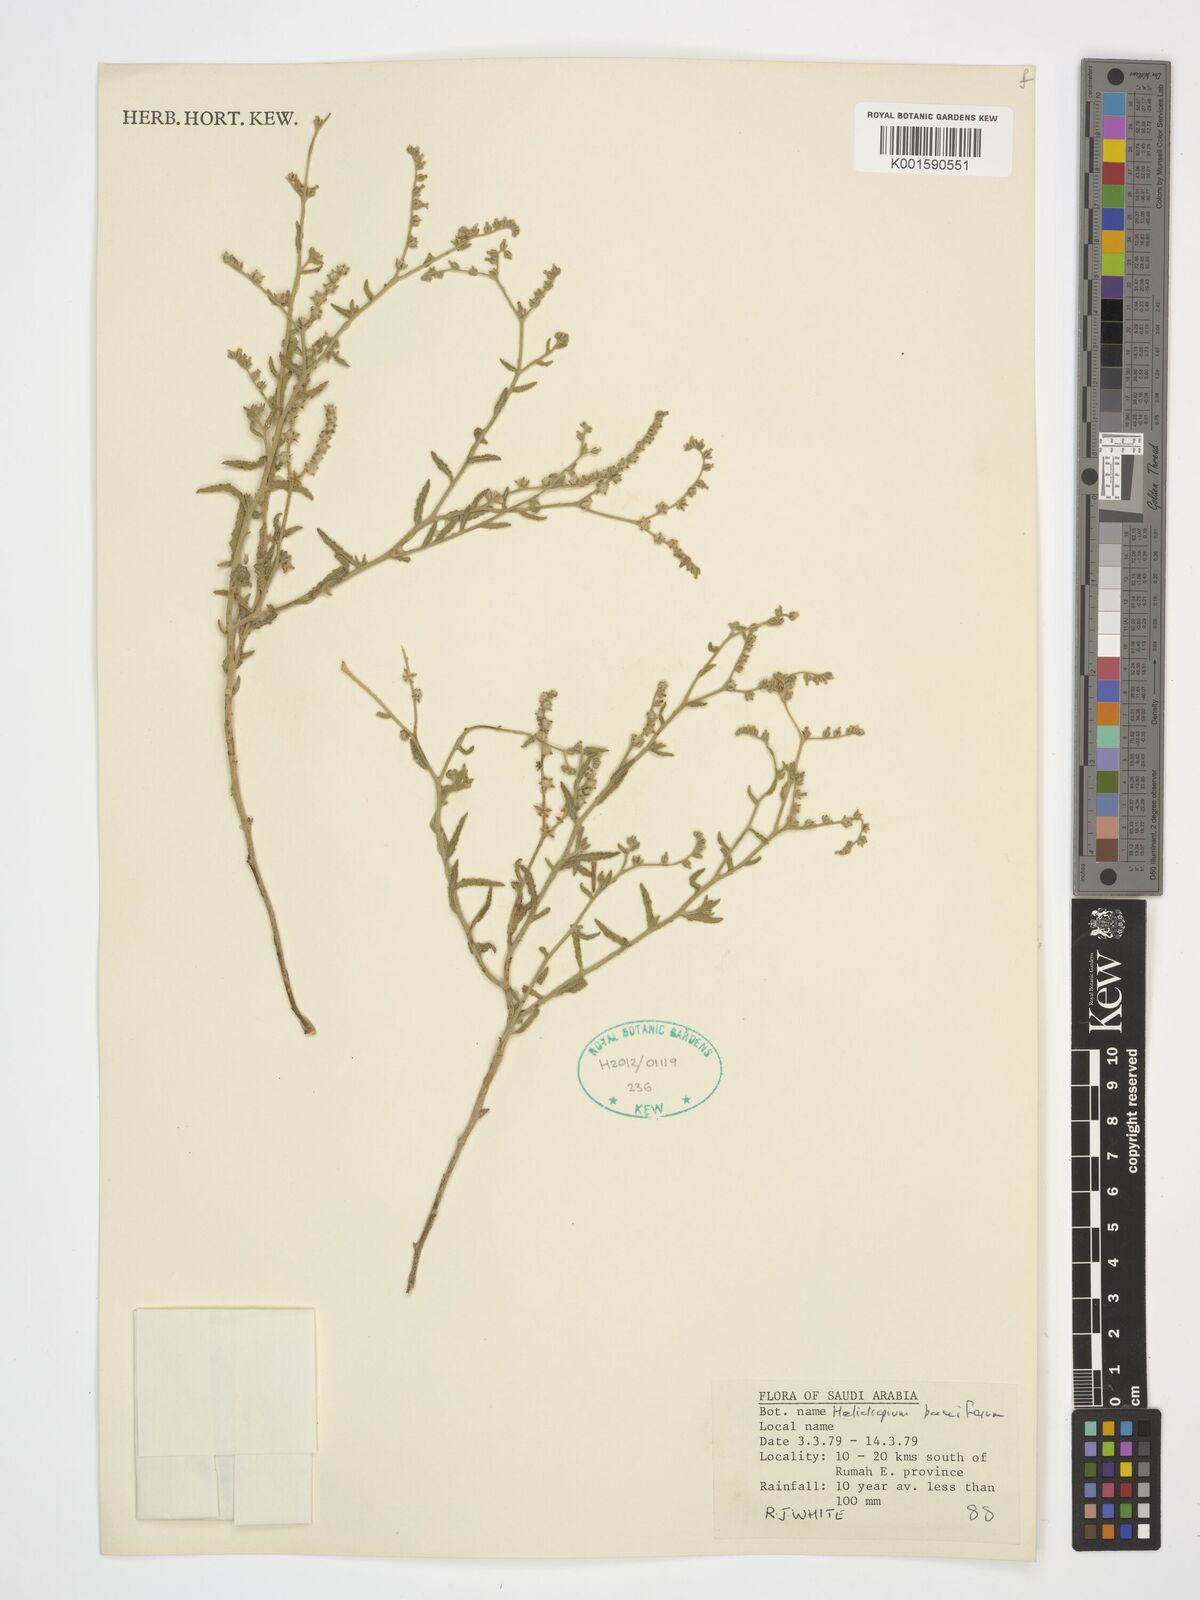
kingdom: Plantae
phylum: Tracheophyta
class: Magnoliopsida
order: Boraginales
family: Heliotropiaceae
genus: Heliotropium
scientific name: Heliotropium bacciferum
